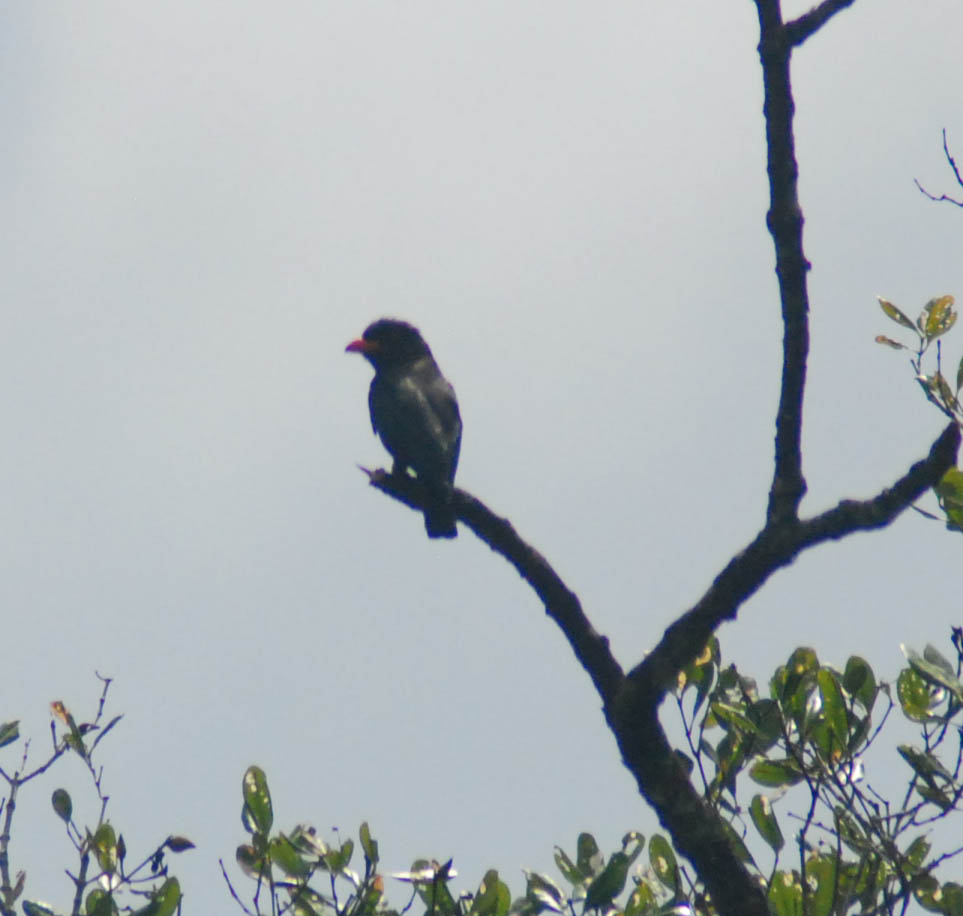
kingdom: Animalia
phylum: Chordata
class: Aves
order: Coraciiformes
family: Coraciidae
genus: Eurystomus
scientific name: Eurystomus orientalis
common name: Oriental dollarbird
